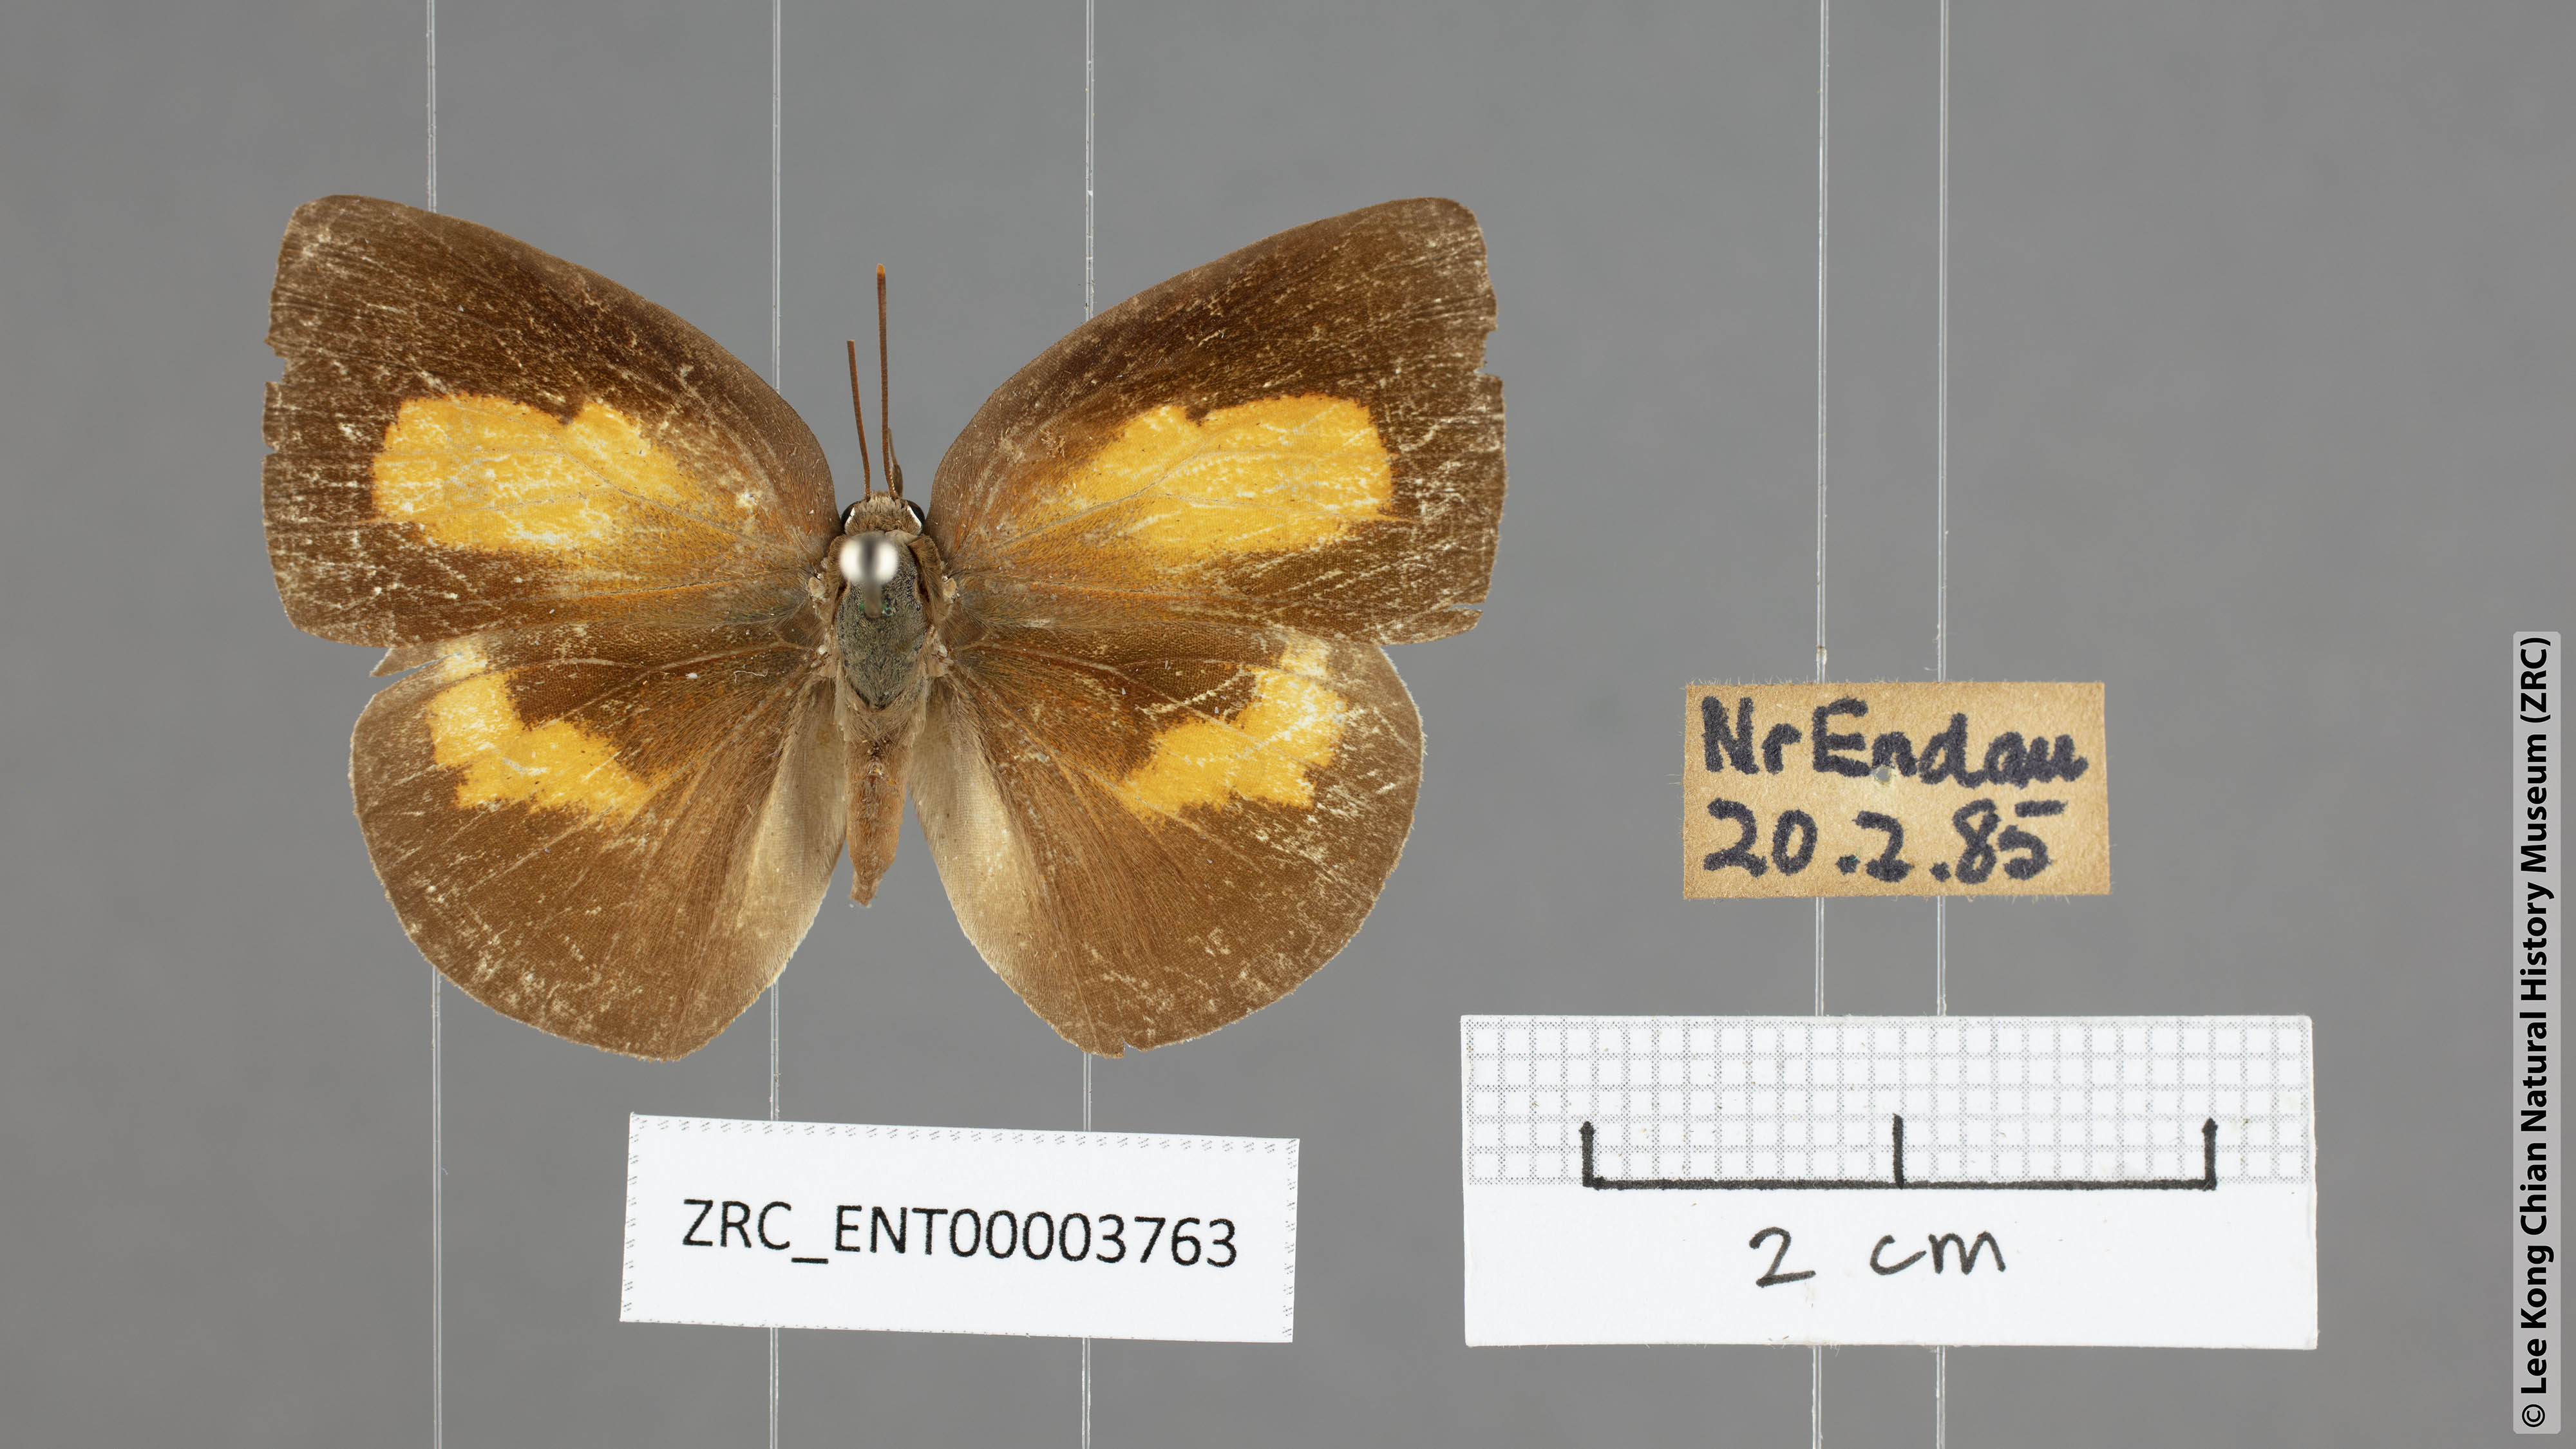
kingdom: Animalia
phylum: Arthropoda
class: Insecta
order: Lepidoptera
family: Lycaenidae
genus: Curetis
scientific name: Curetis tagalica
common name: Southern sunbeam
